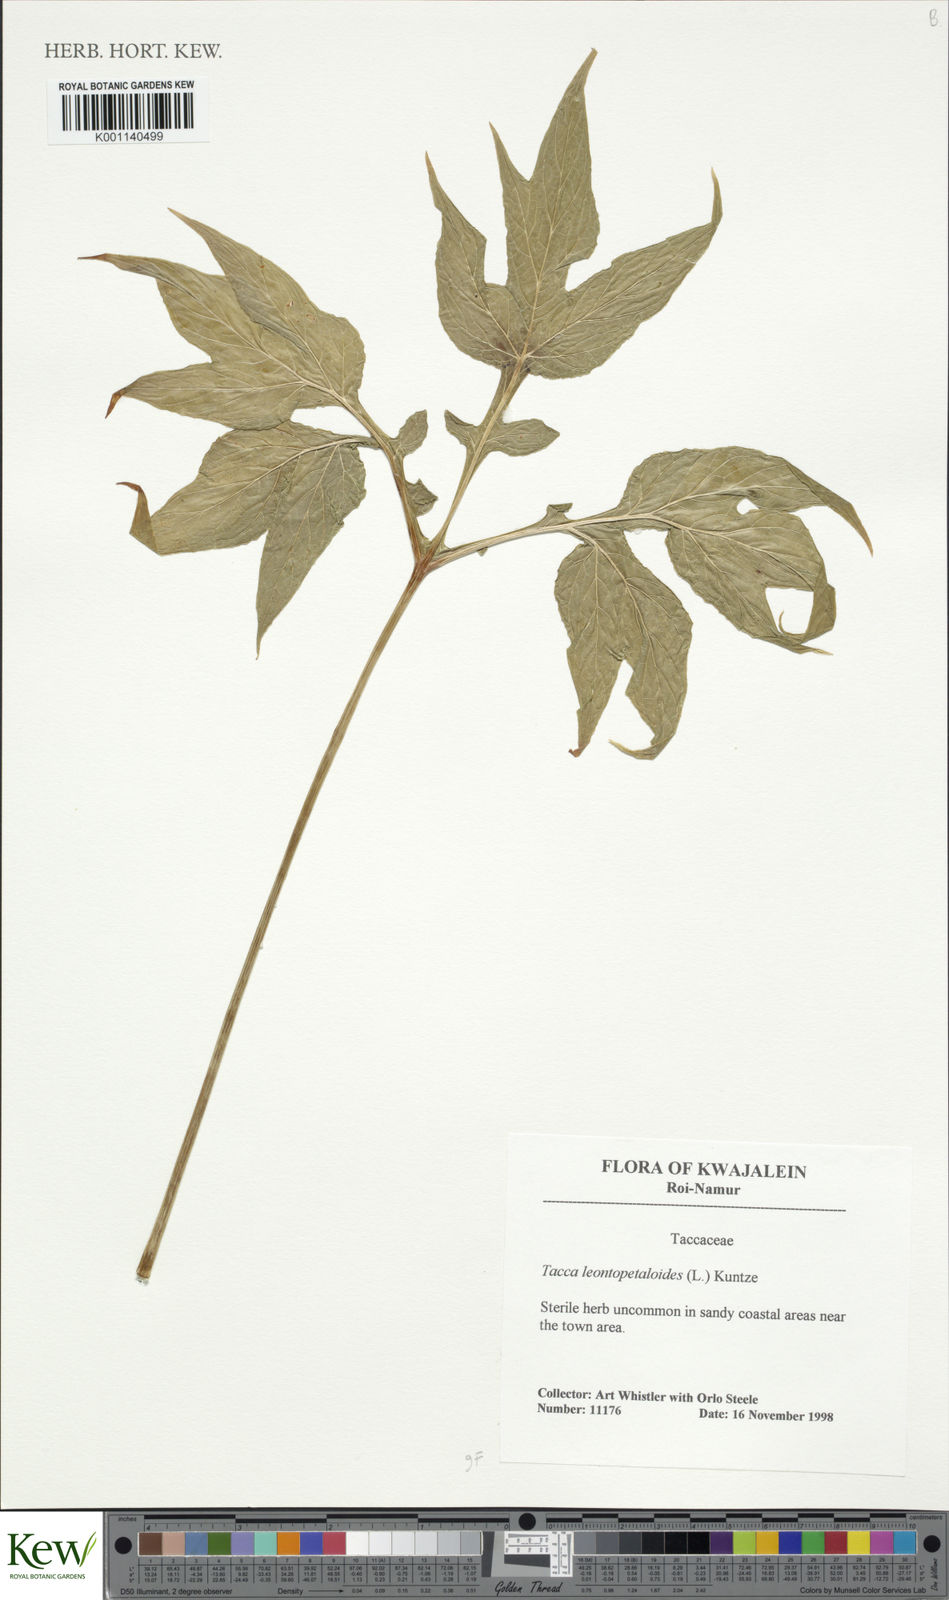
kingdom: Plantae
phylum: Tracheophyta
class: Liliopsida
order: Dioscoreales
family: Dioscoreaceae
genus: Tacca
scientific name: Tacca leontopetaloides
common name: Arrowroot
